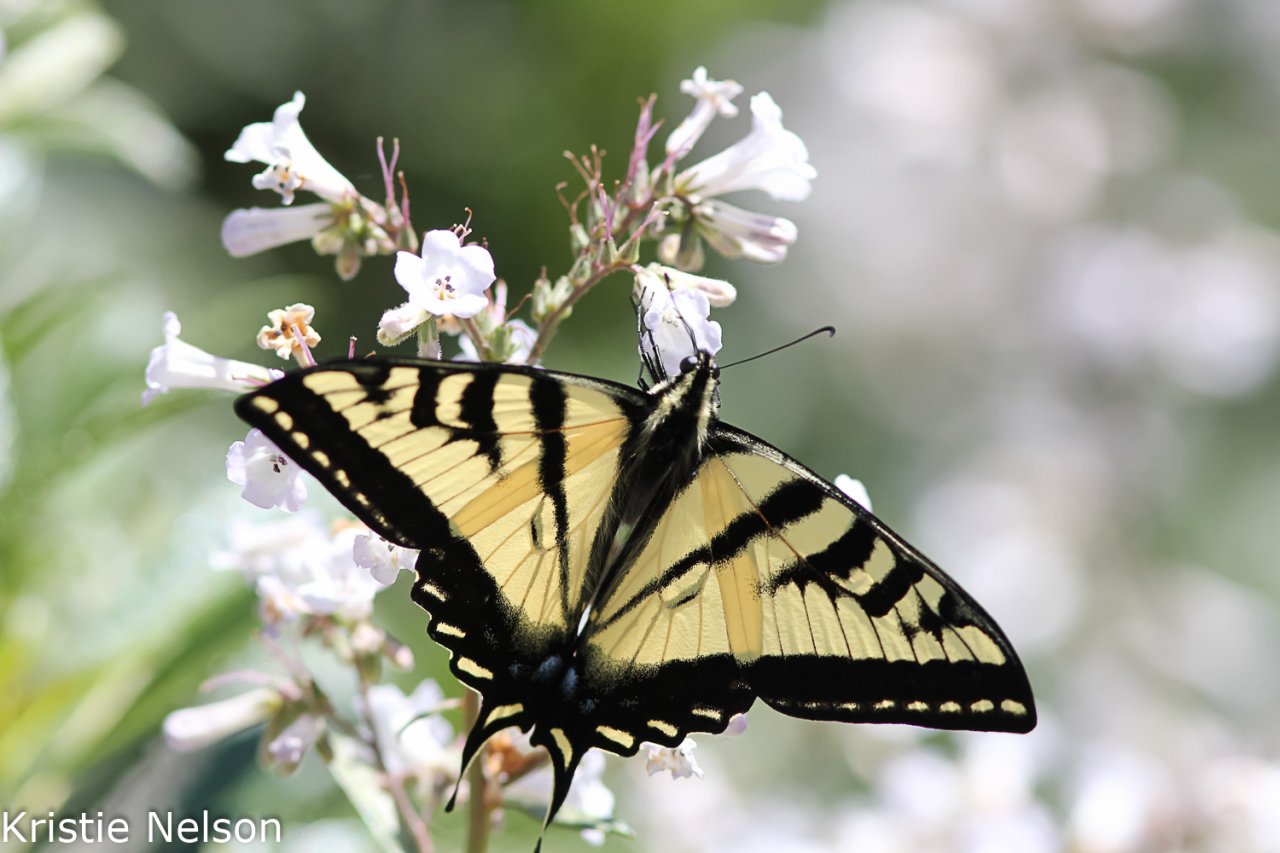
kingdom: Animalia
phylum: Arthropoda
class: Insecta
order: Lepidoptera
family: Papilionidae
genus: Pterourus
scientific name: Pterourus rutulus
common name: Western Tiger Swallowtail
